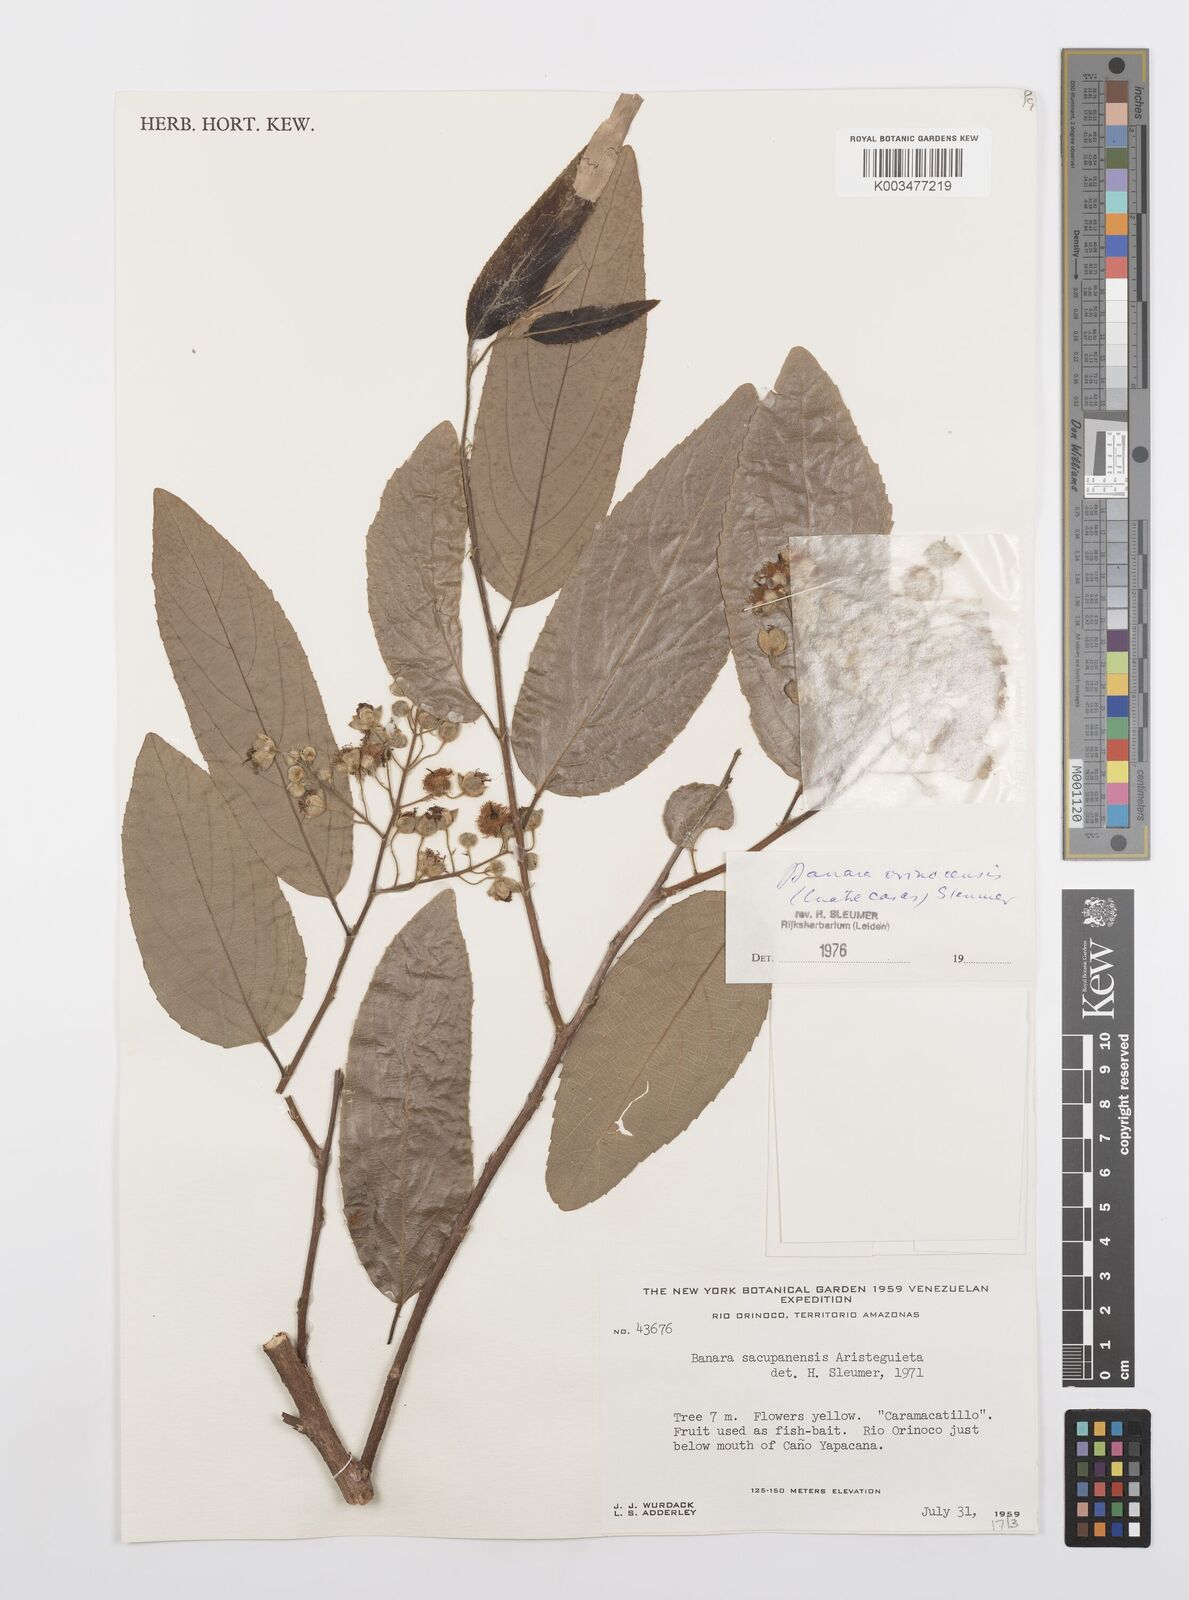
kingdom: Plantae
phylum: Tracheophyta
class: Magnoliopsida
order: Malpighiales
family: Salicaceae
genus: Banara
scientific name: Banara orinocensis
